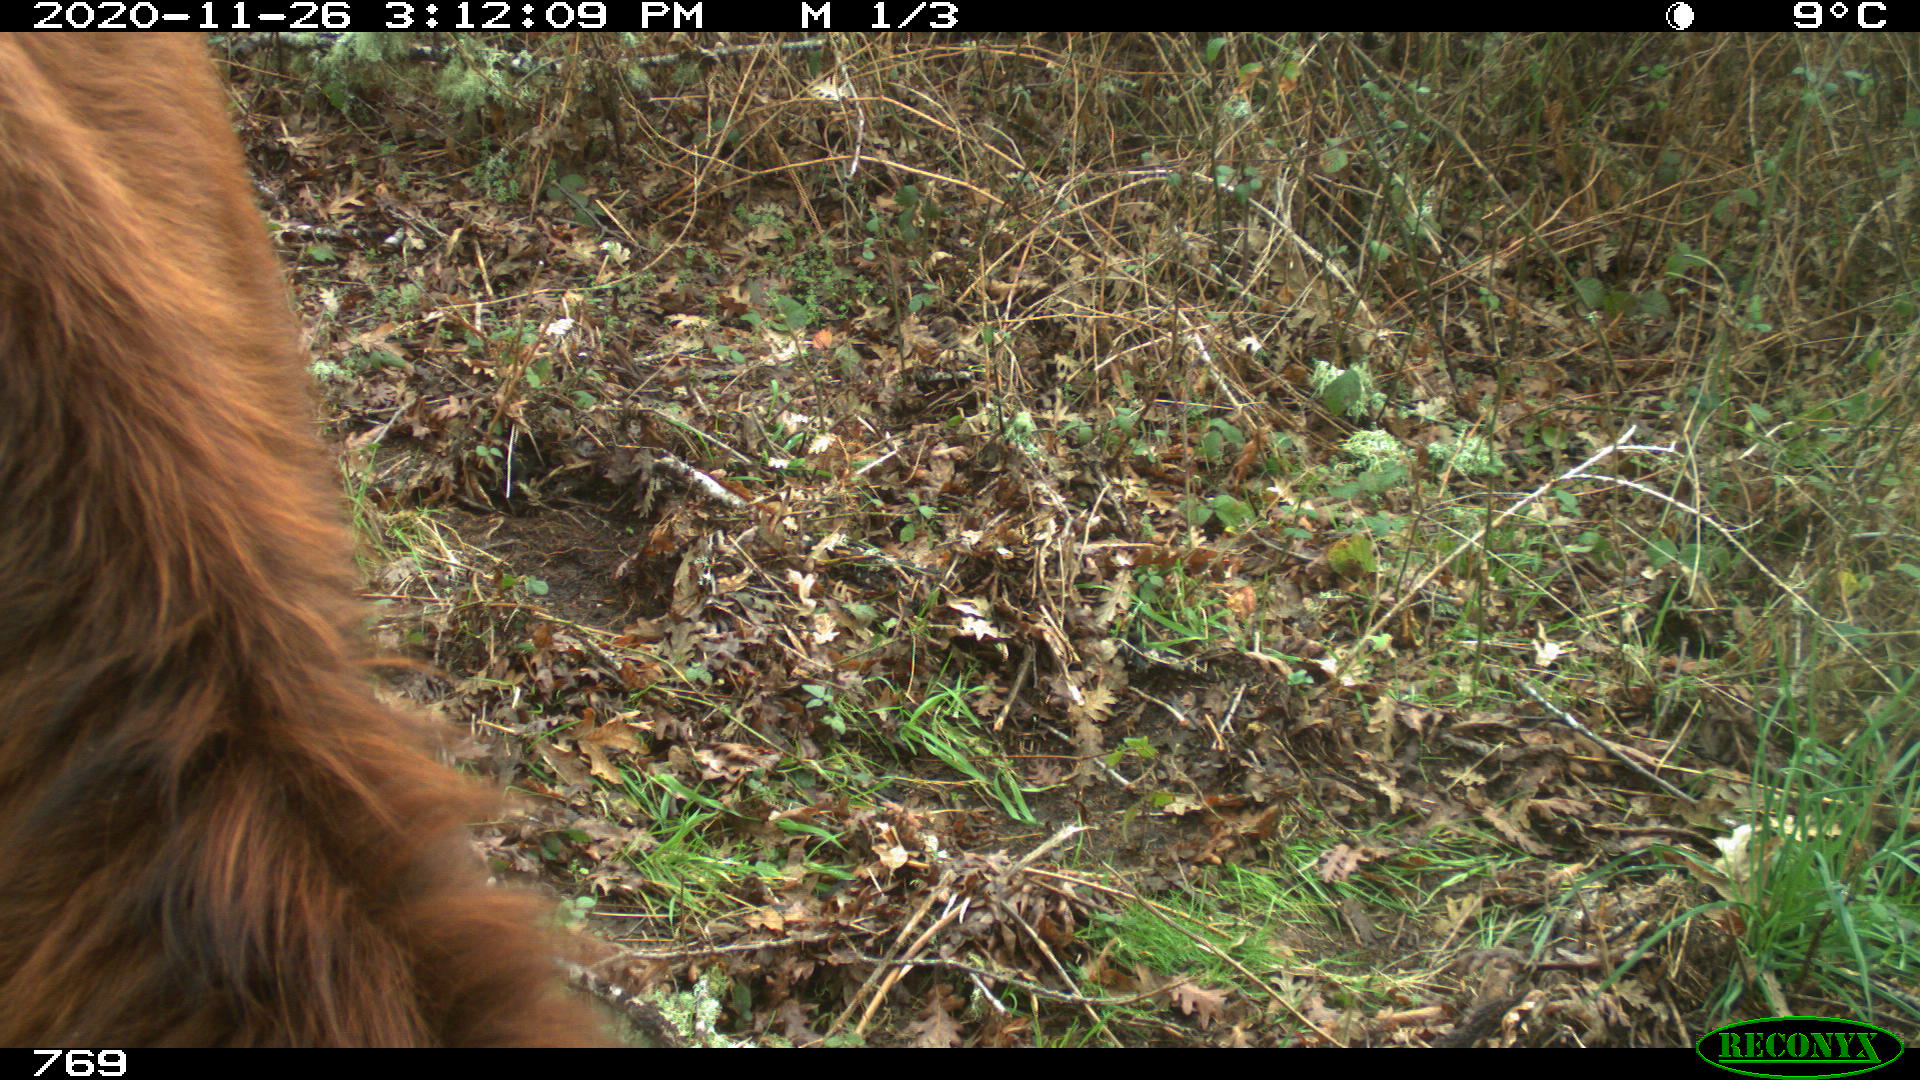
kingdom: Animalia
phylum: Chordata
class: Mammalia
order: Artiodactyla
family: Bovidae
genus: Bos
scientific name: Bos taurus
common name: Domesticated cattle
